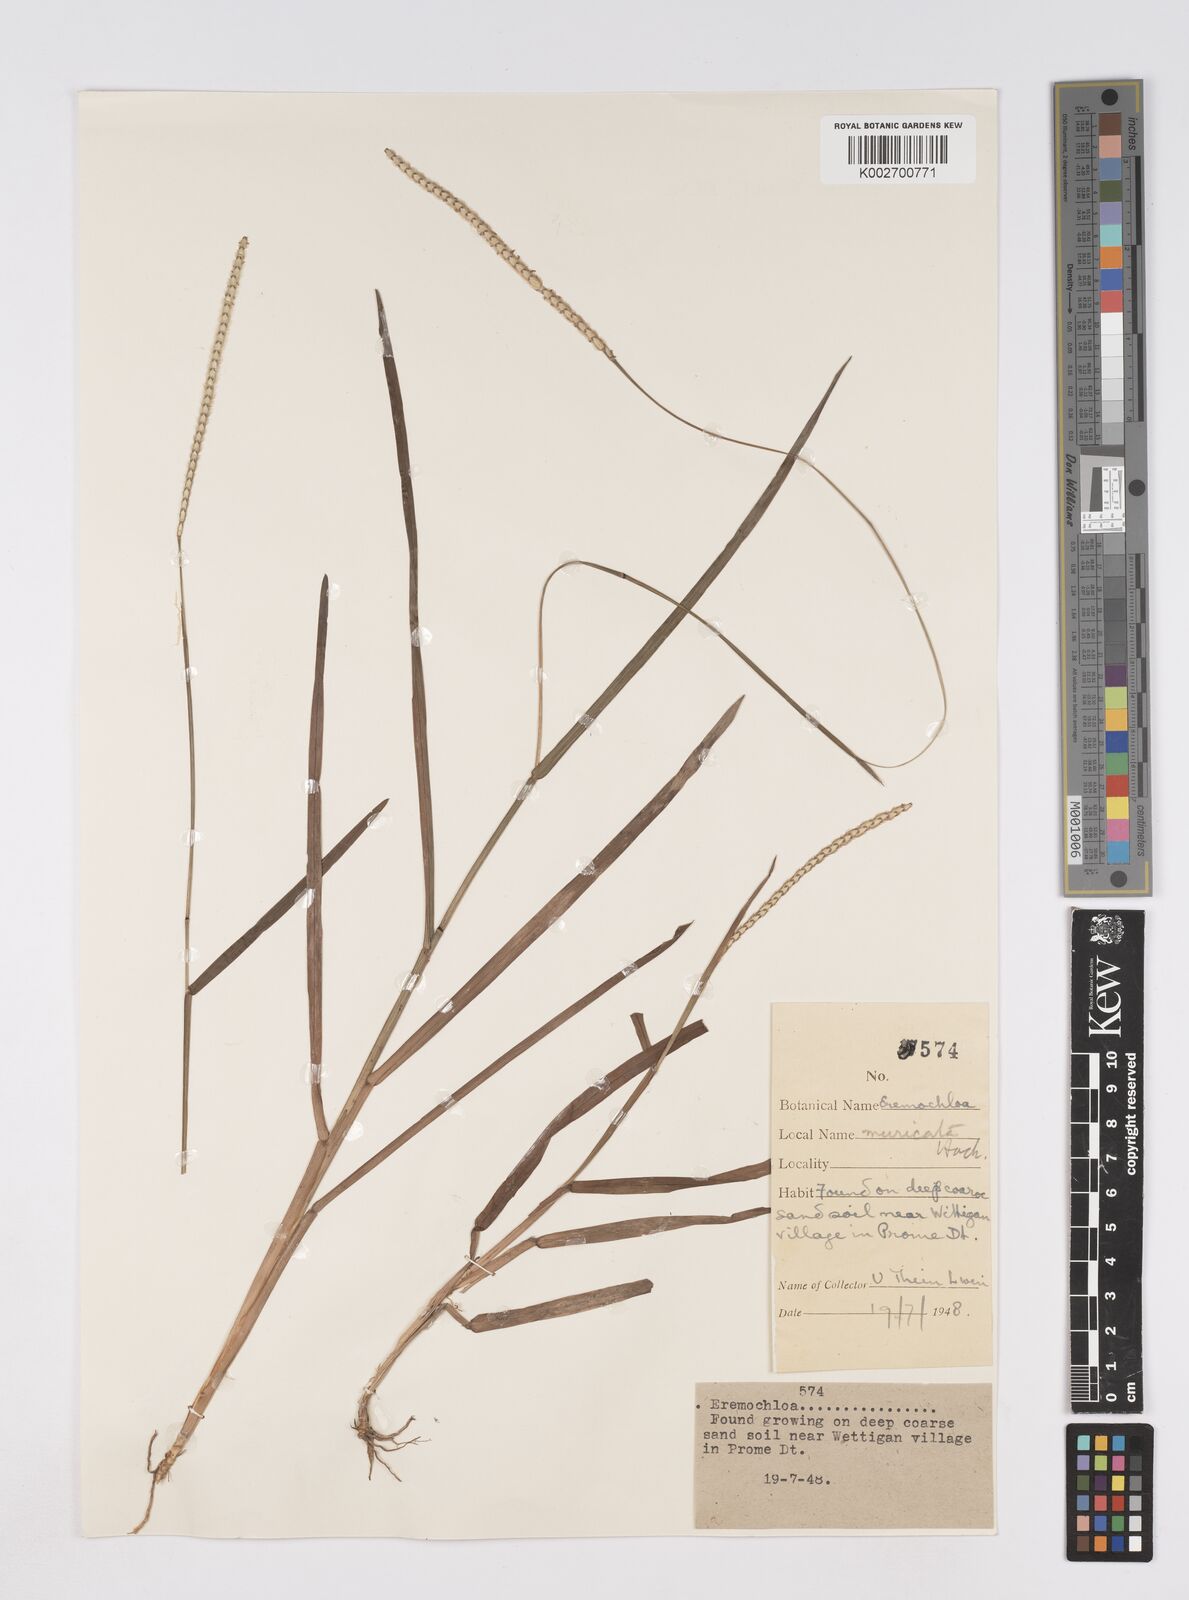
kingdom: Plantae
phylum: Tracheophyta
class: Liliopsida
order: Poales
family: Poaceae
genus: Eremochloa
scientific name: Eremochloa muricata
